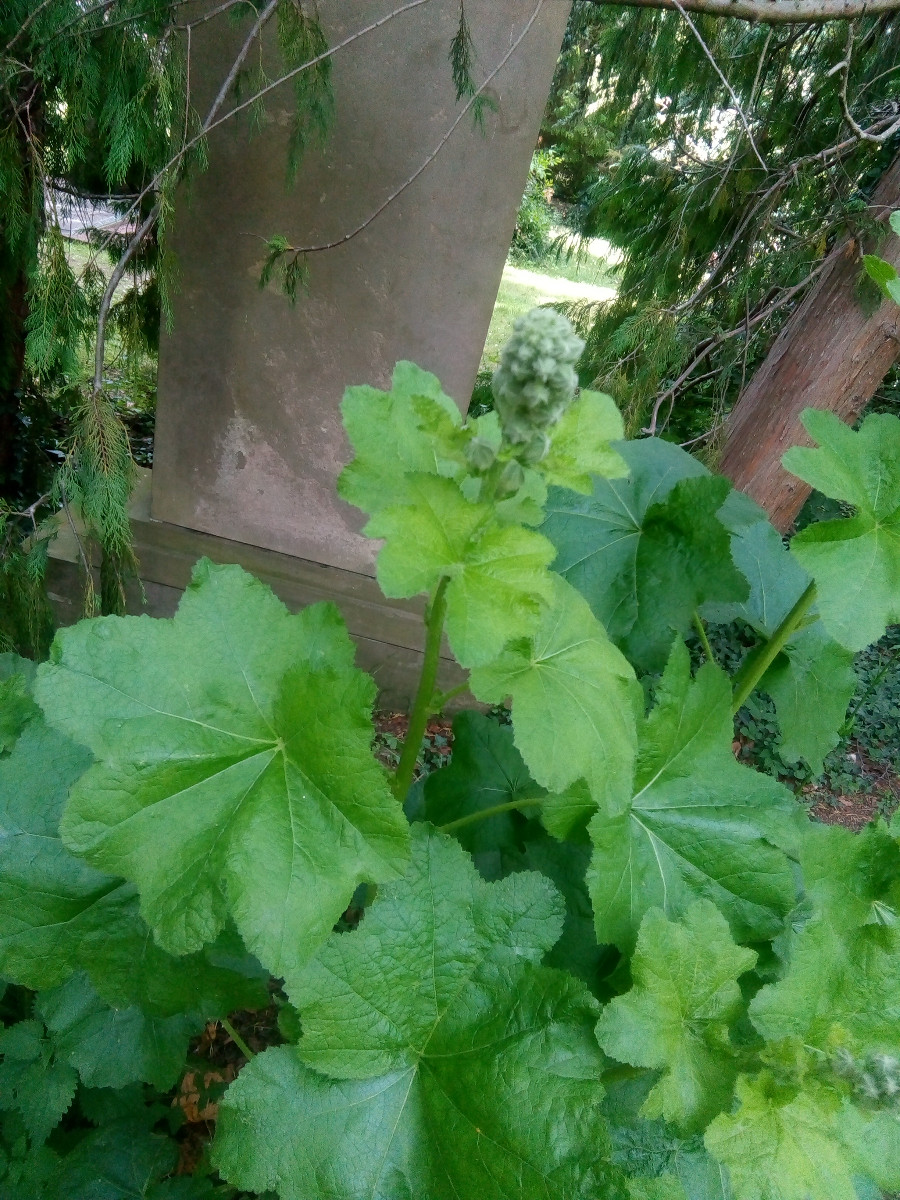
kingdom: Fungi
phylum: Basidiomycota
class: Pucciniomycetes
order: Pucciniales
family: Pucciniaceae
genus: Puccinia
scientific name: Puccinia malvacearum
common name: stokrose-tvecellerust
